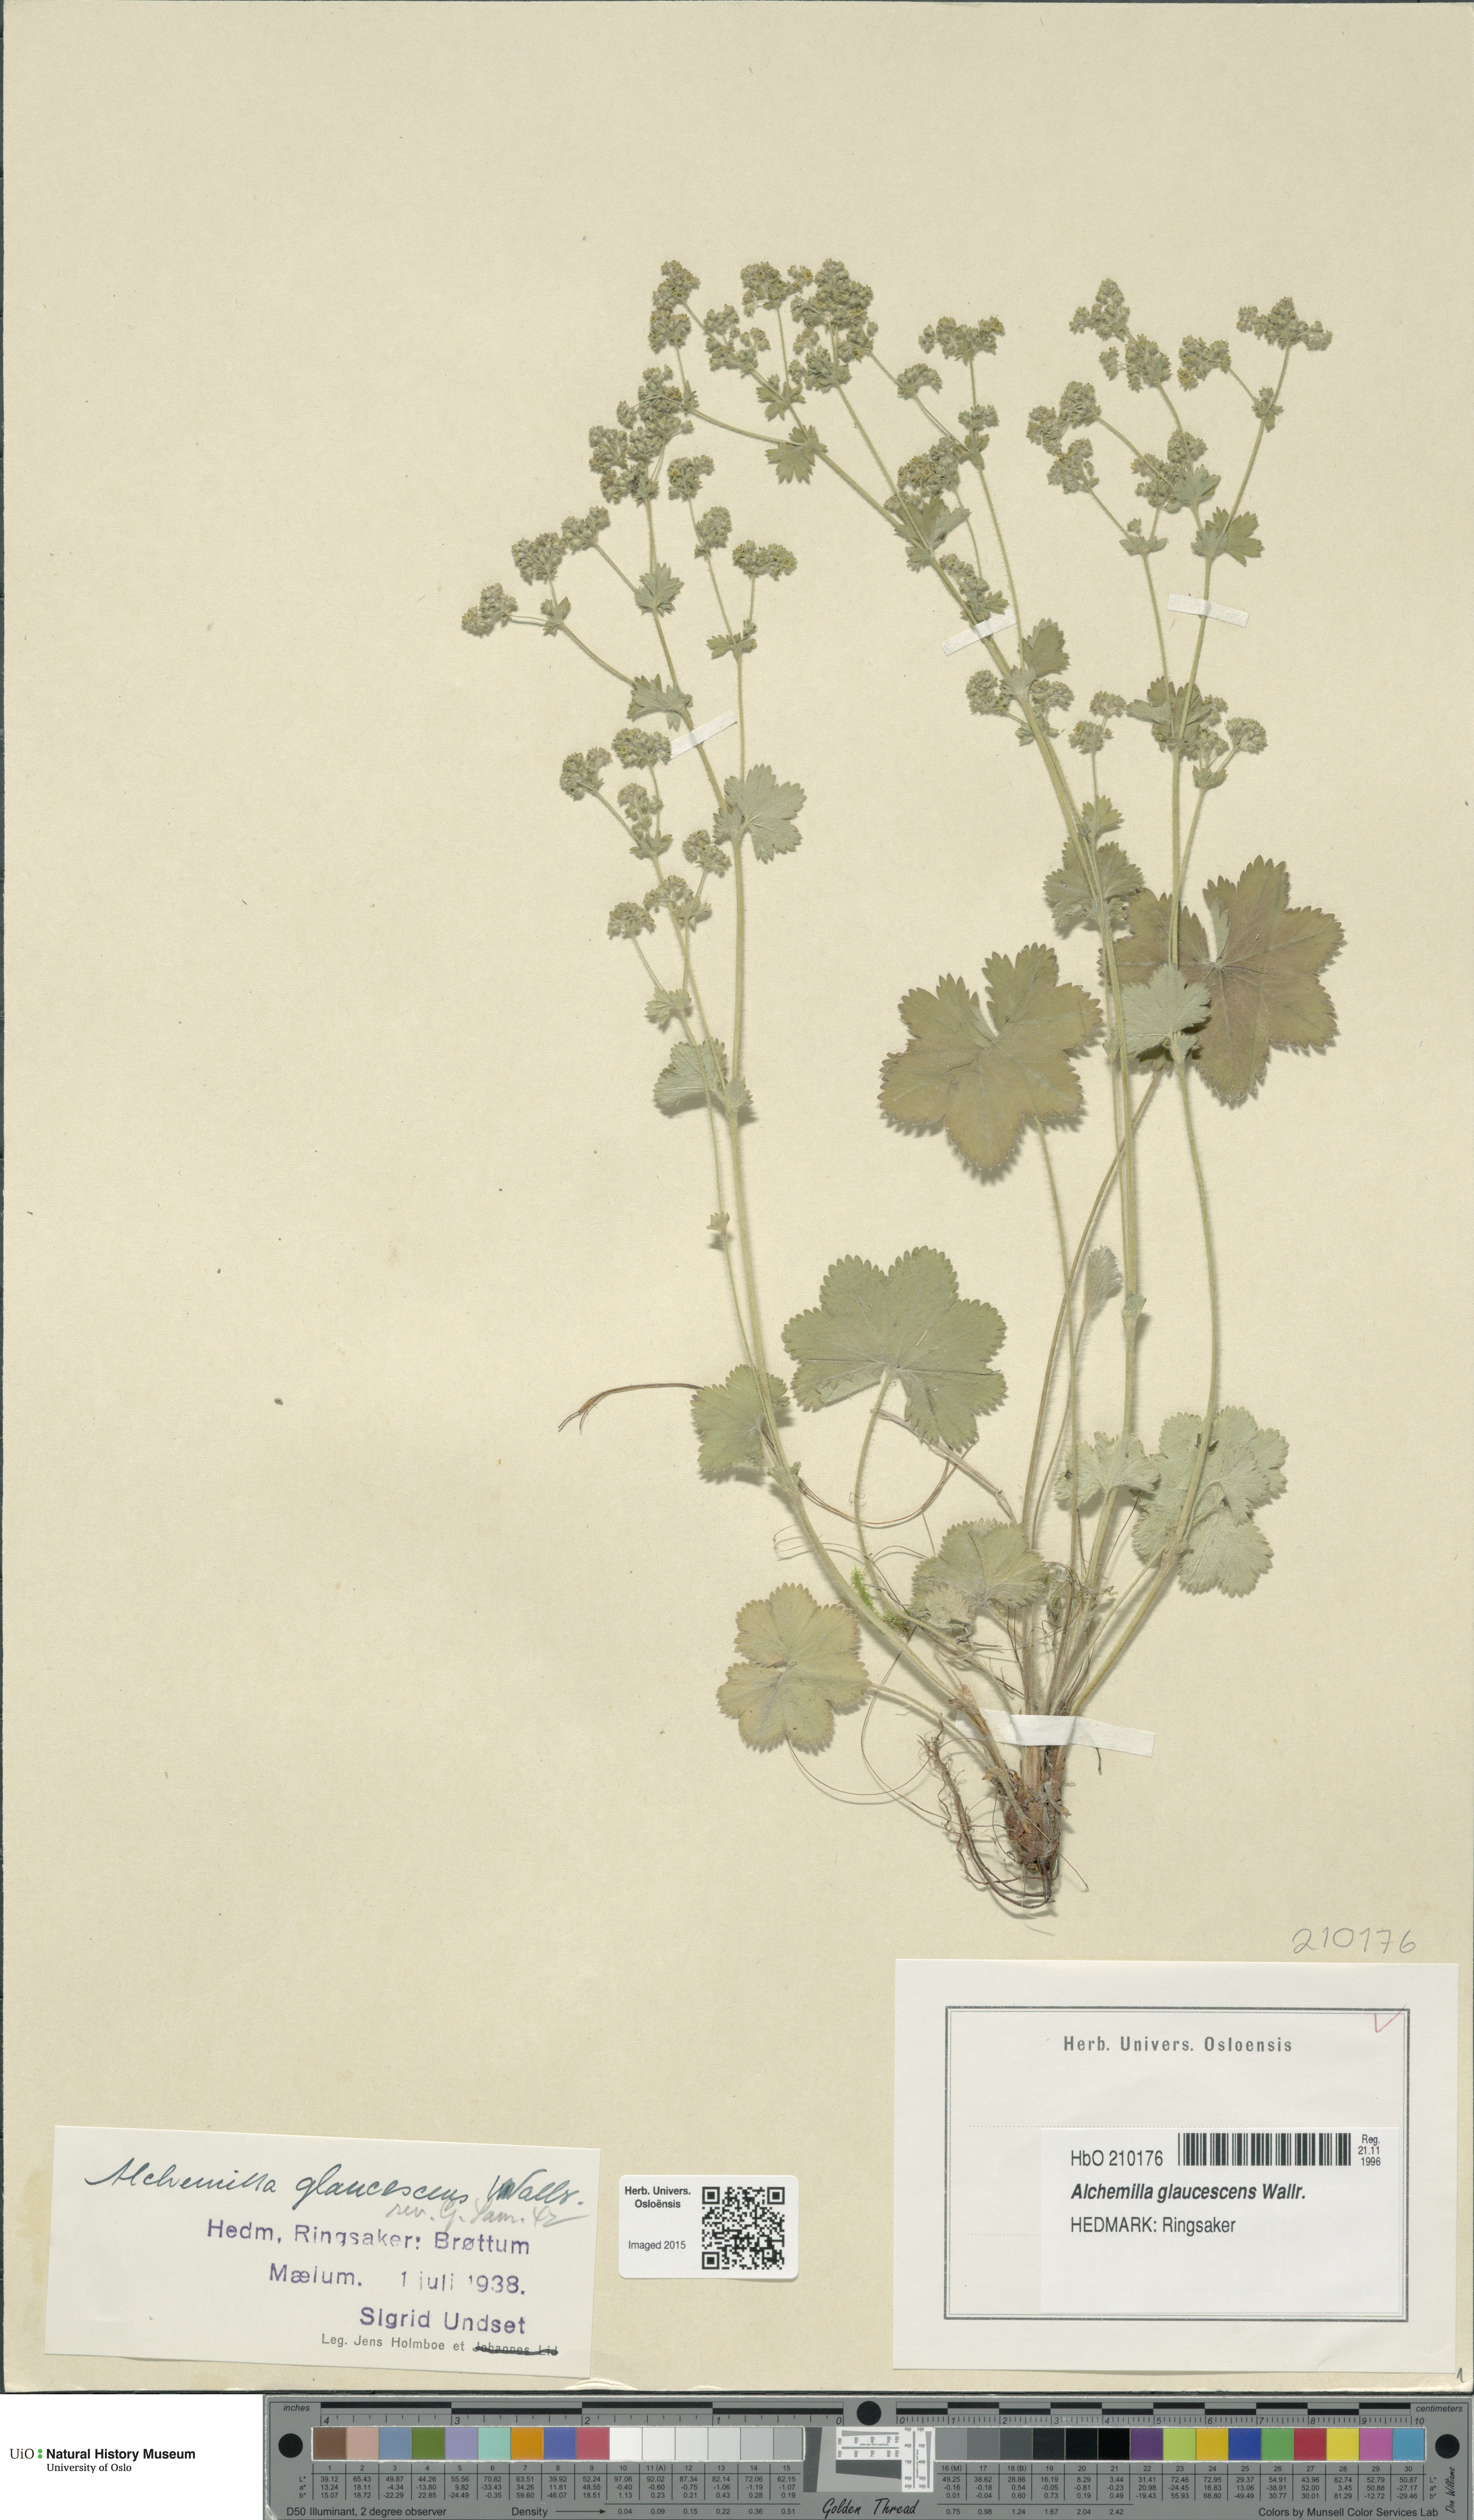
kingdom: Plantae
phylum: Tracheophyta
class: Magnoliopsida
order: Rosales
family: Rosaceae
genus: Alchemilla
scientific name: Alchemilla glaucescens
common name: Silky lady's mantle
